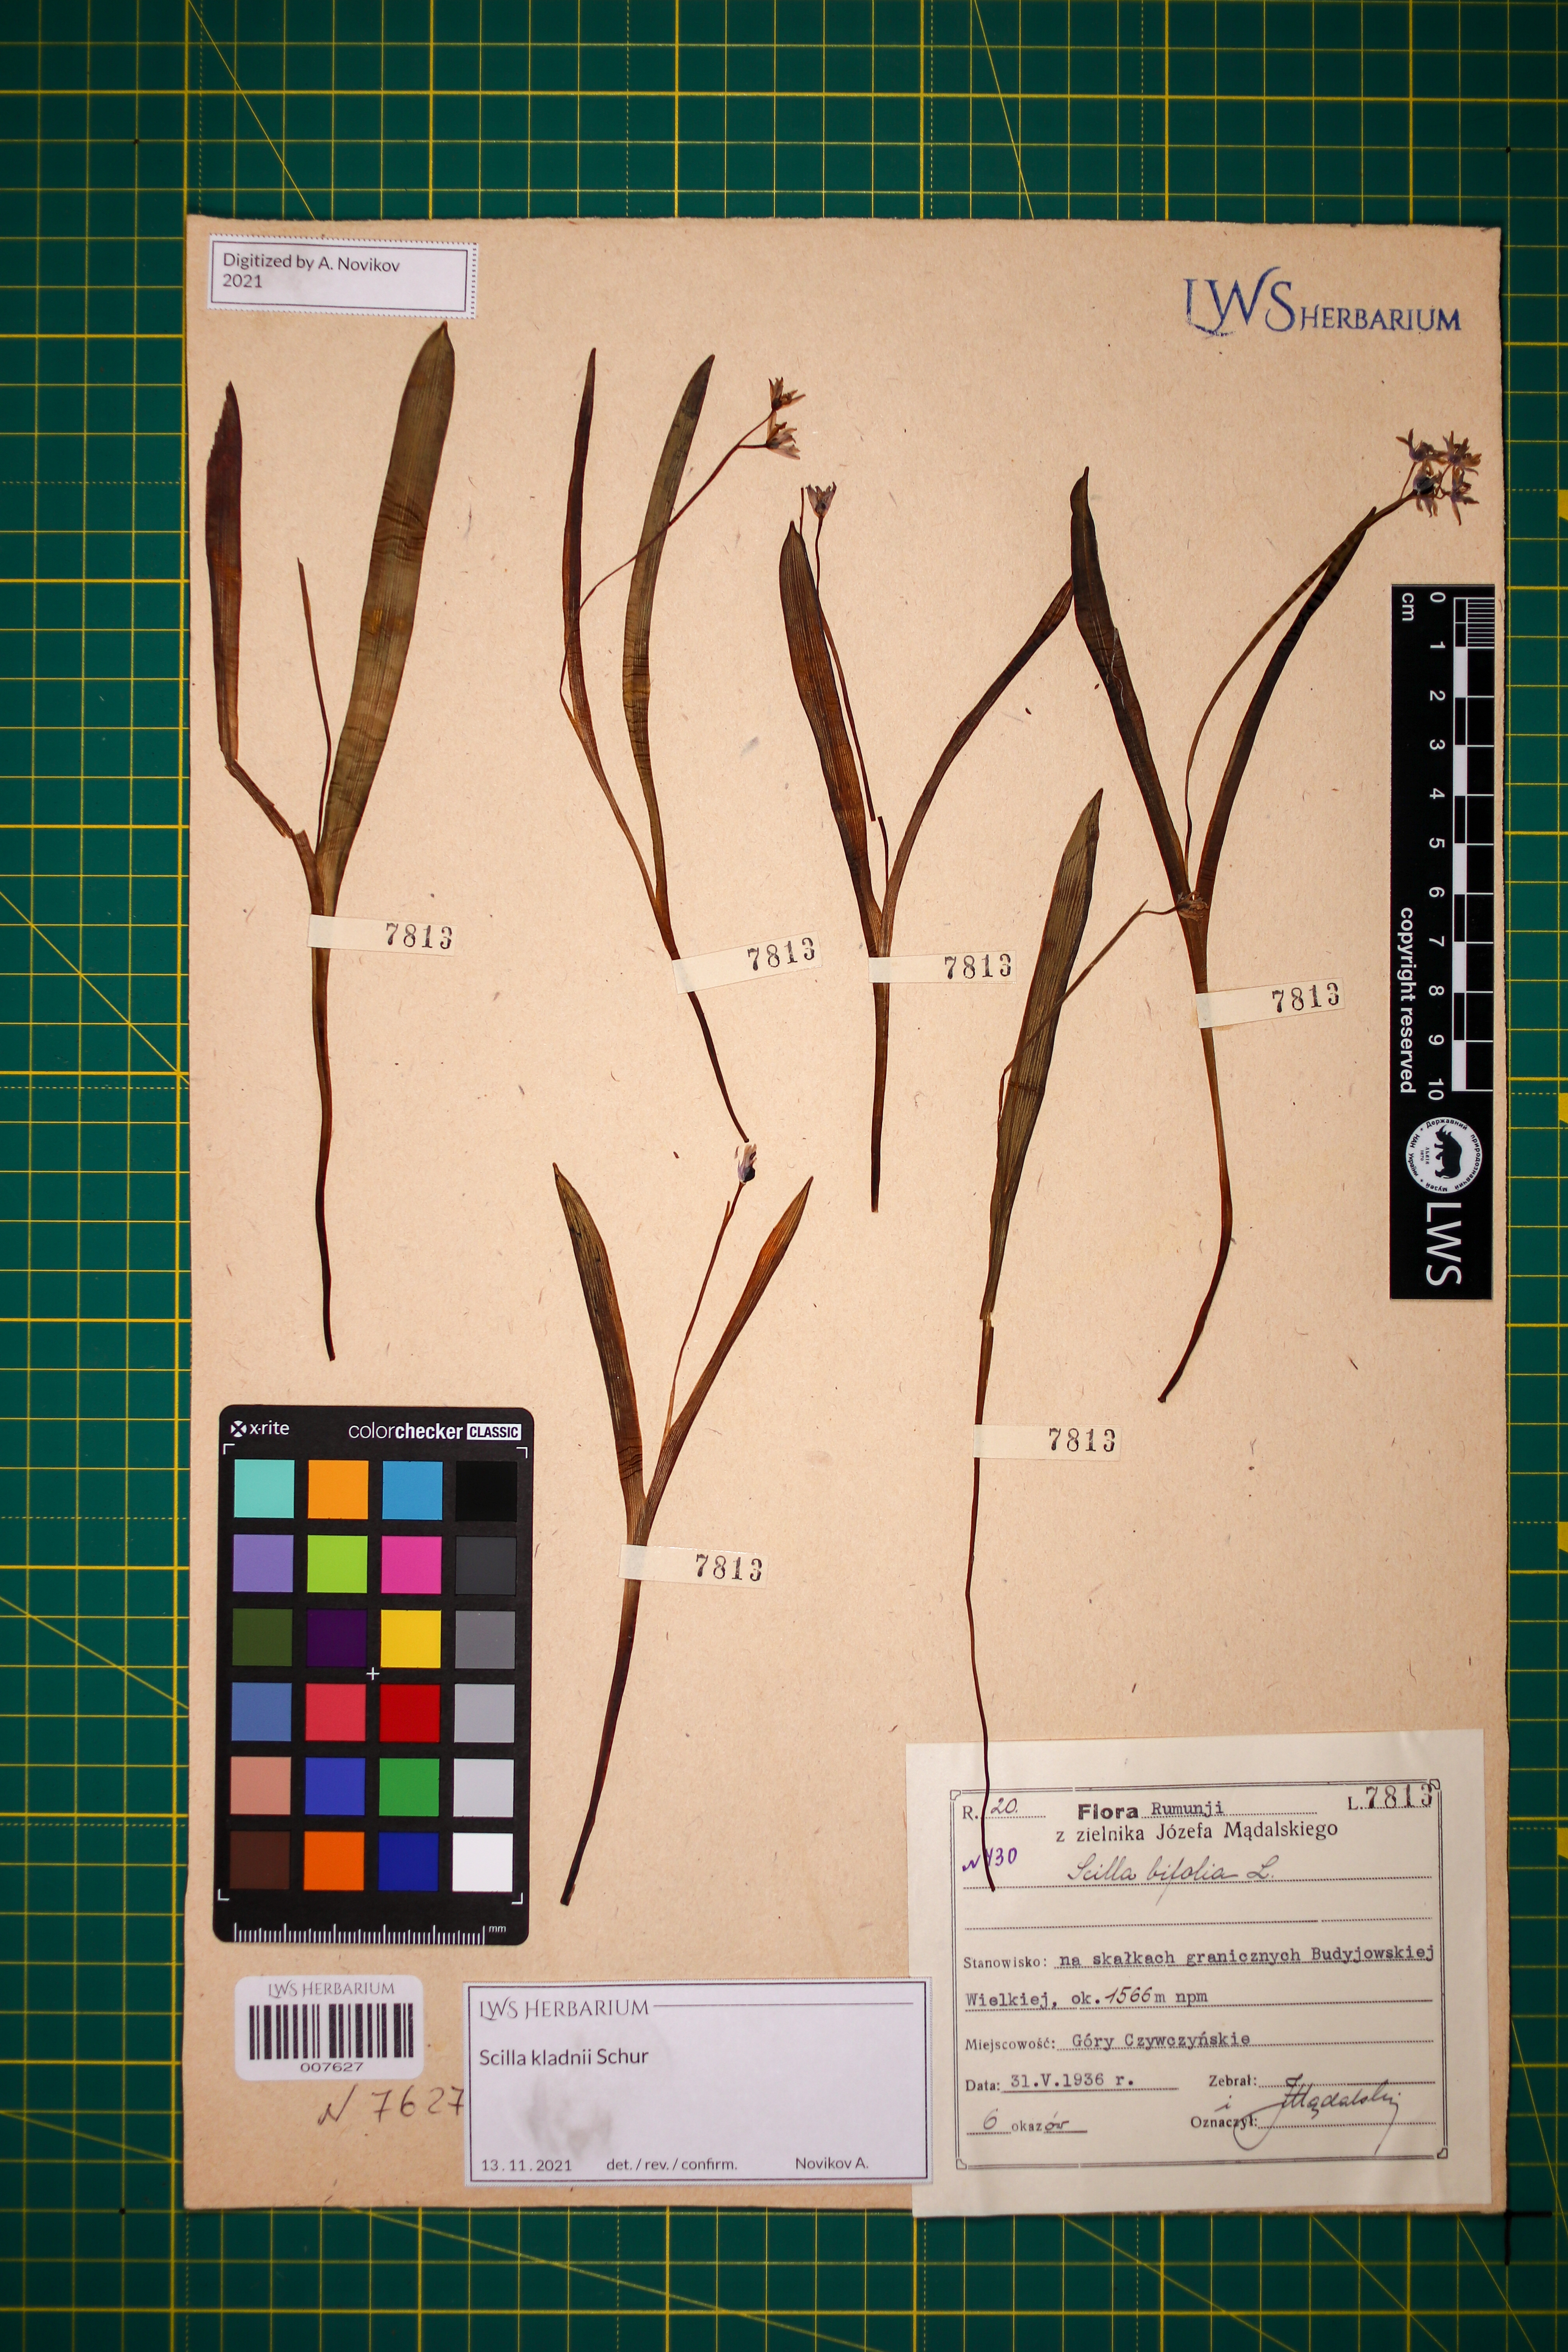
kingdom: Plantae
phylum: Tracheophyta
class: Liliopsida
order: Asparagales
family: Asparagaceae
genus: Scilla
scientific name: Scilla kladnii
